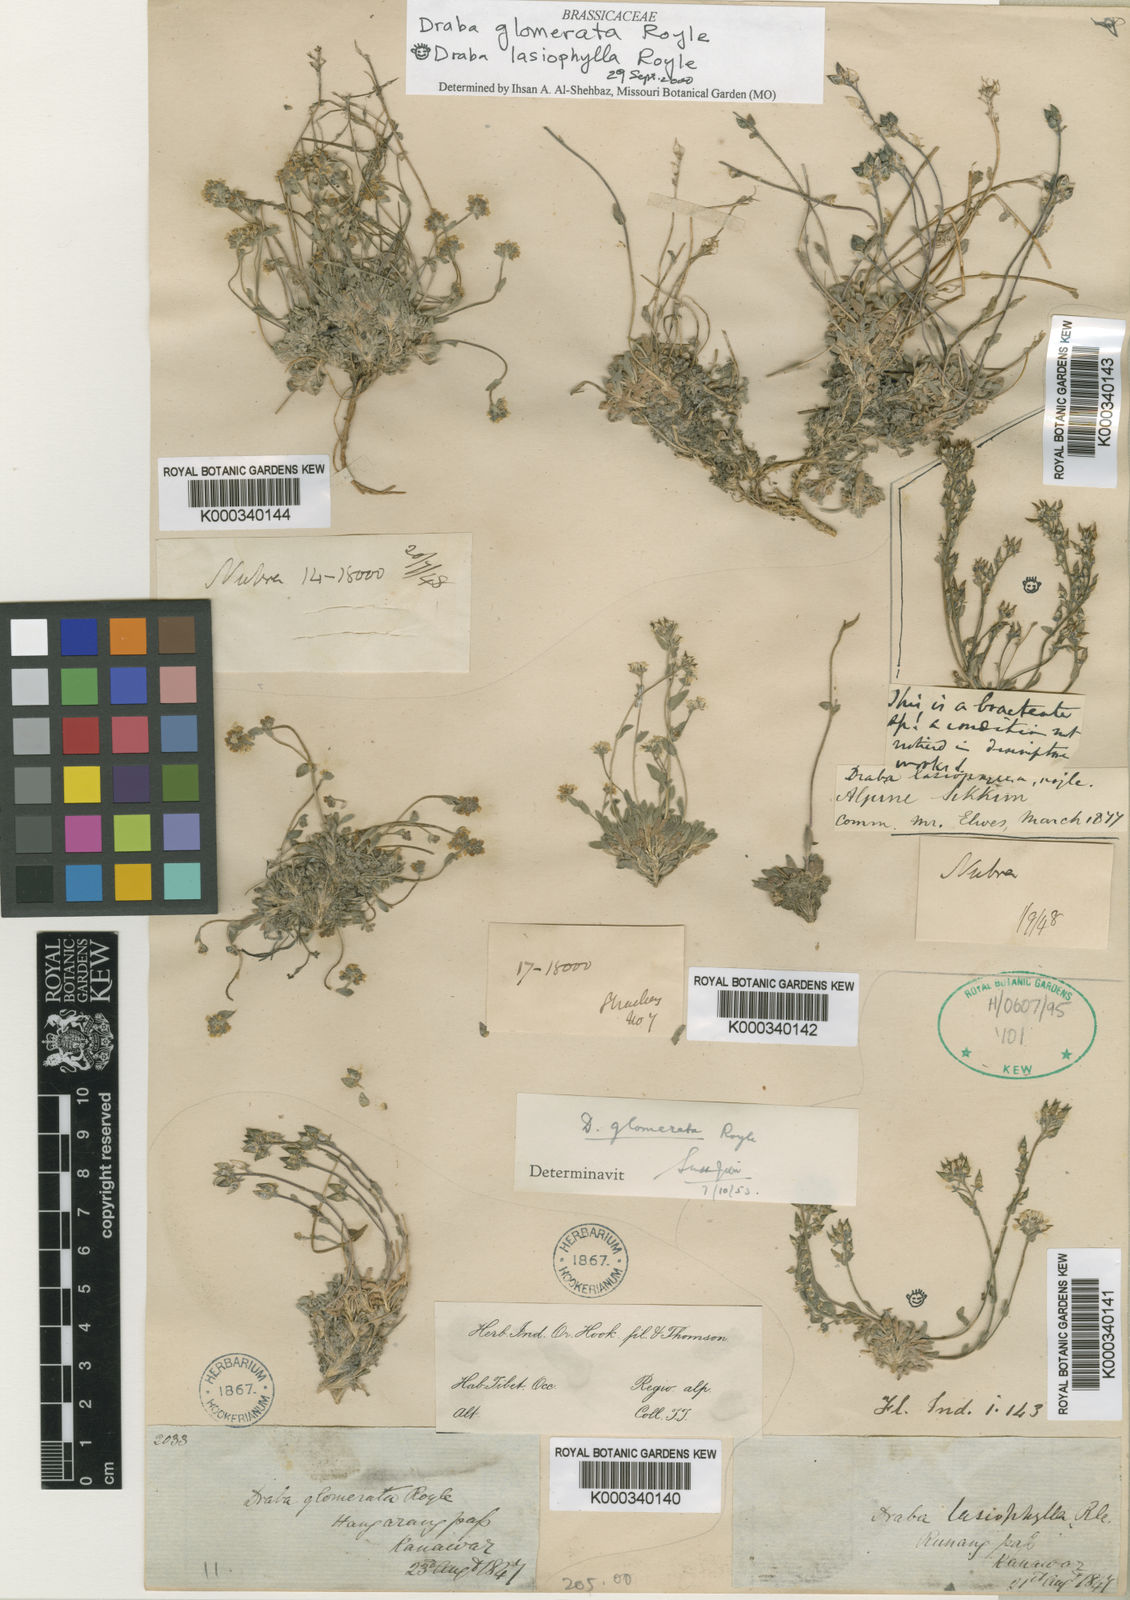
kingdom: Plantae
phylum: Tracheophyta
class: Magnoliopsida
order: Brassicales
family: Brassicaceae
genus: Draba
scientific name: Draba lasiophylla
